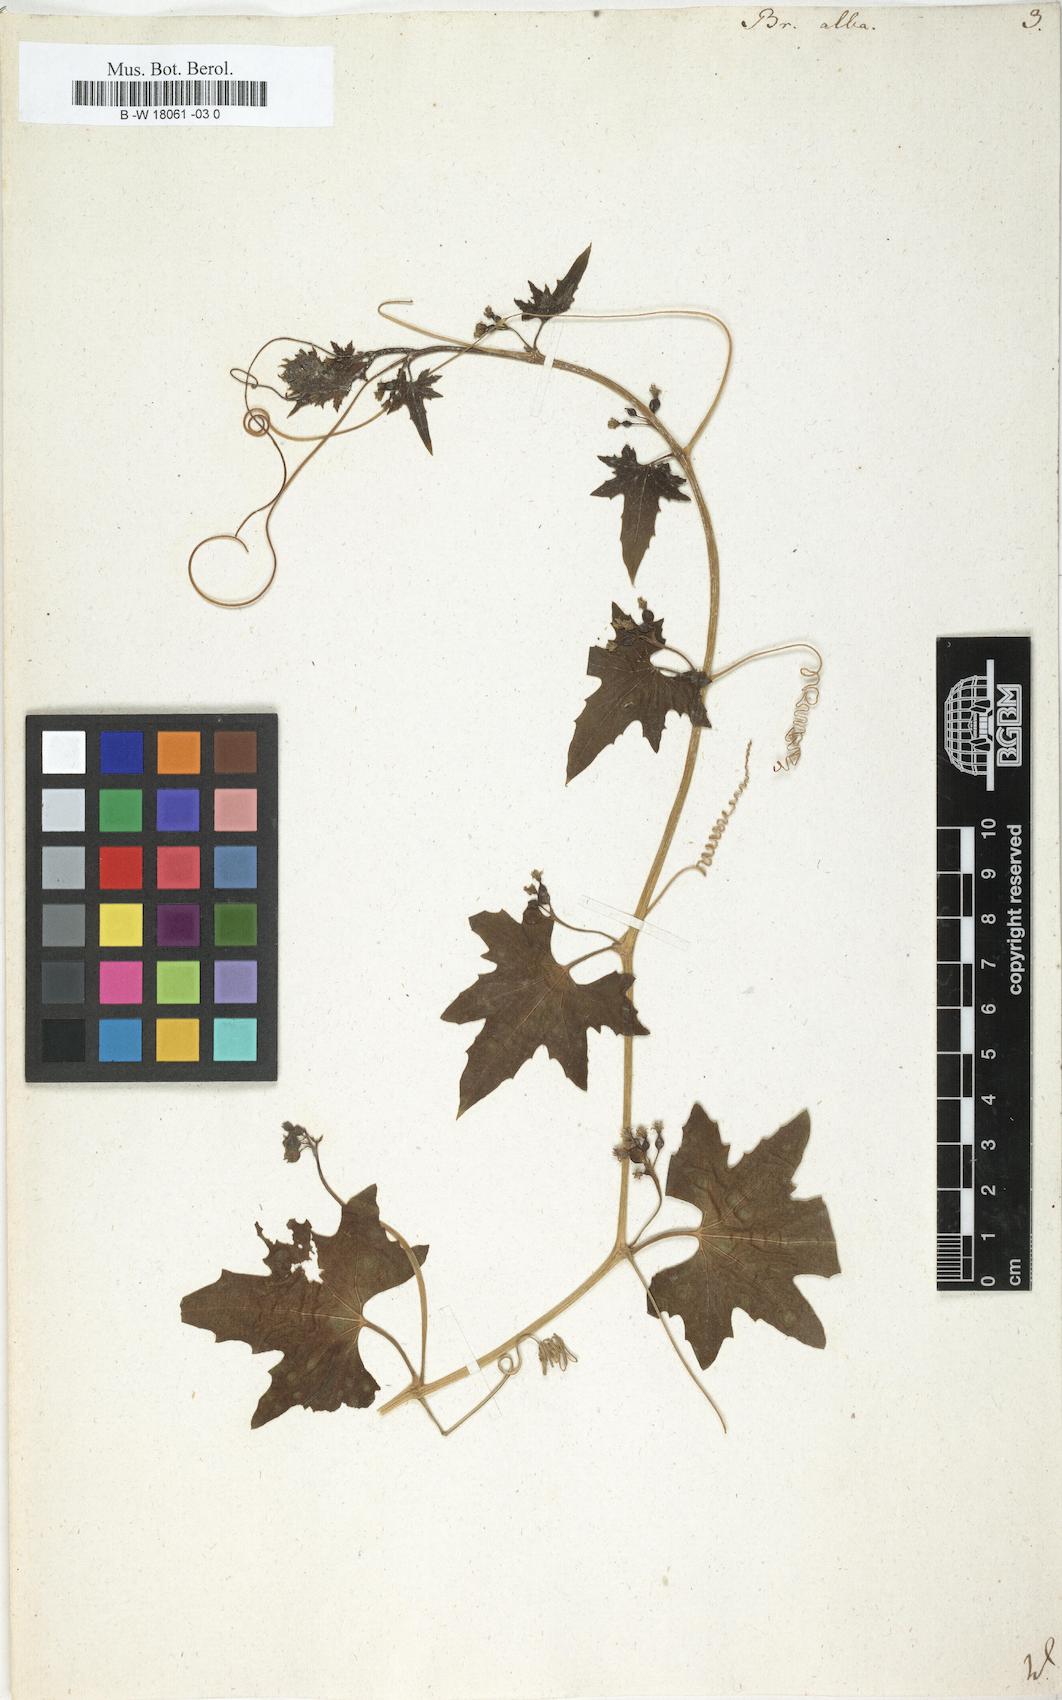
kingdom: Plantae
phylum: Tracheophyta
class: Magnoliopsida
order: Cucurbitales
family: Cucurbitaceae
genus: Bryonia
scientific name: Bryonia alba
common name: White bryony
